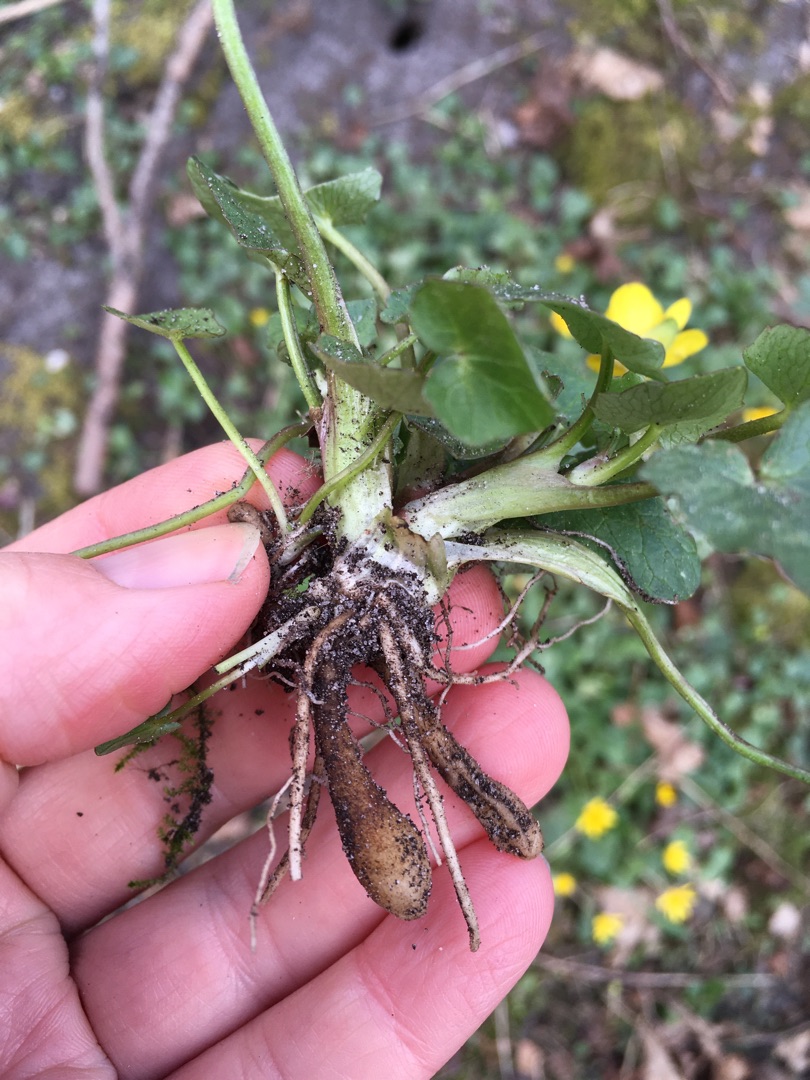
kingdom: Plantae
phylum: Tracheophyta
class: Magnoliopsida
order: Ranunculales
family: Ranunculaceae
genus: Ficaria
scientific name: Ficaria verna
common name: Vorterod
